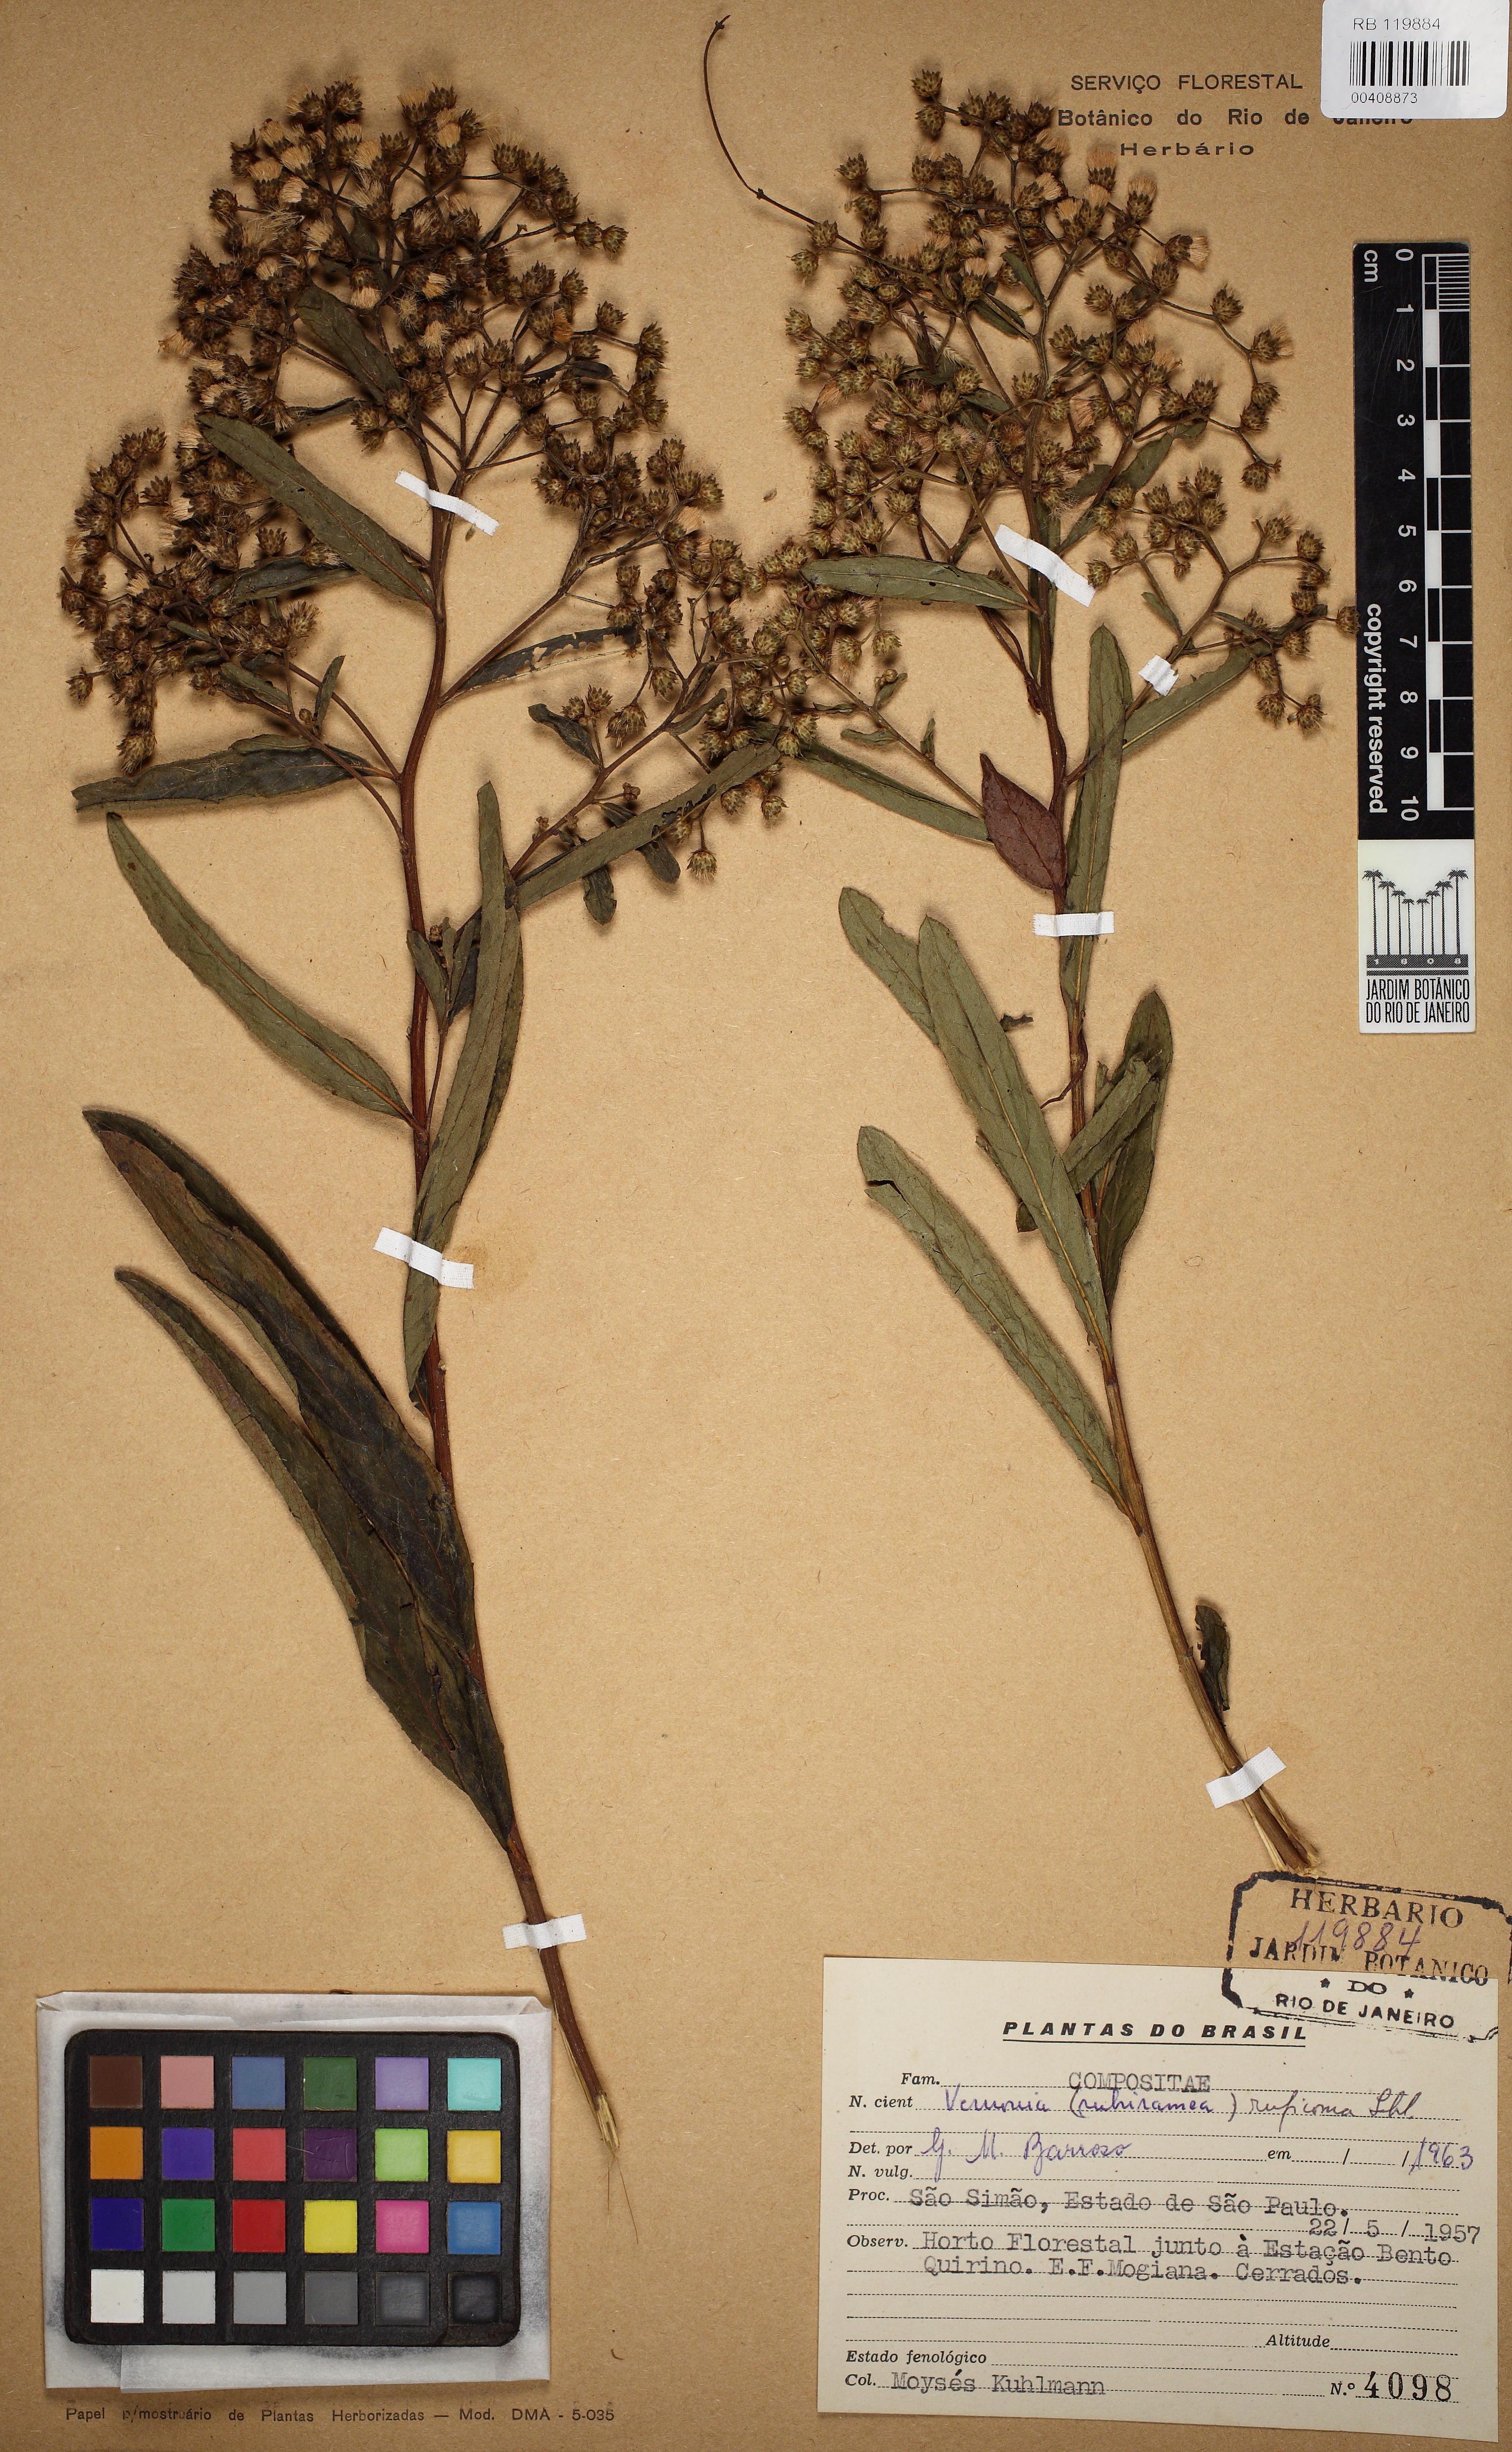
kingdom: Plantae
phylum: Tracheophyta
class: Magnoliopsida
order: Asterales
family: Asteraceae
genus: Vernonanthura
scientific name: Vernonanthura membranacea
